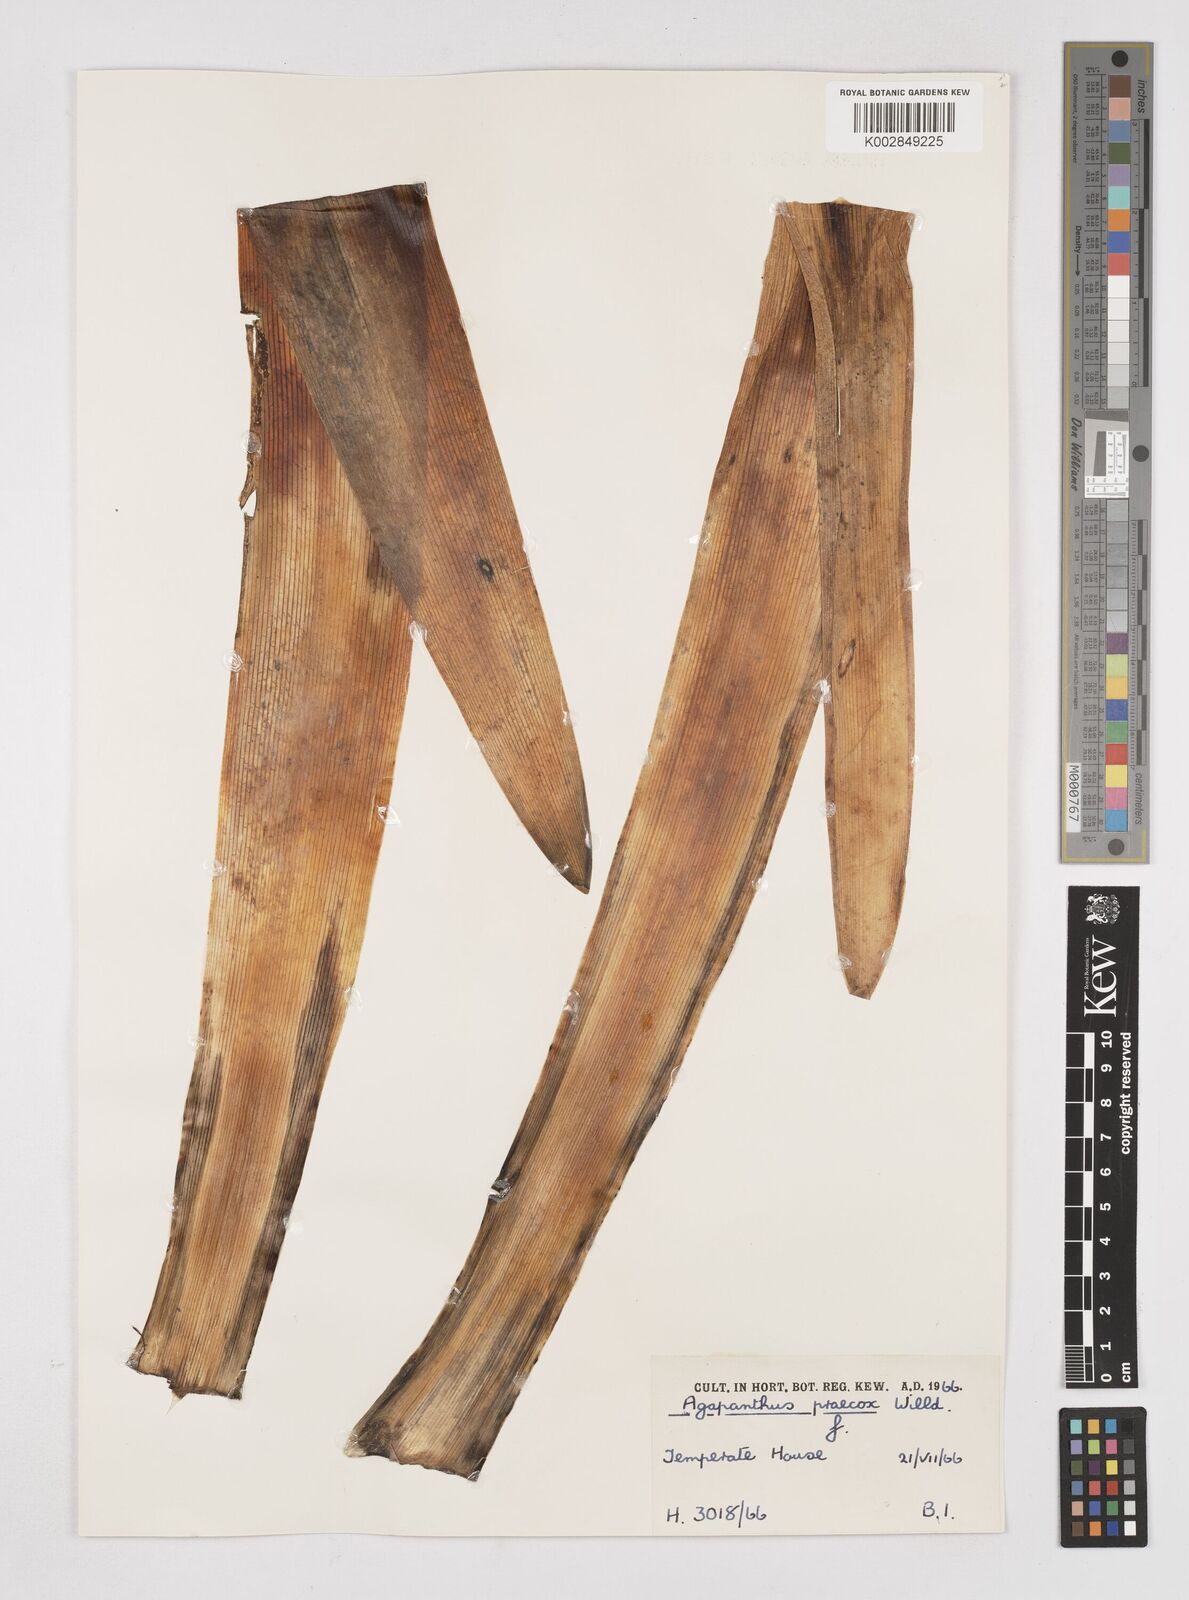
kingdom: Plantae
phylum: Tracheophyta
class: Liliopsida
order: Asparagales
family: Amaryllidaceae
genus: Agapanthus
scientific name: Agapanthus praecox
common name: African-lily
